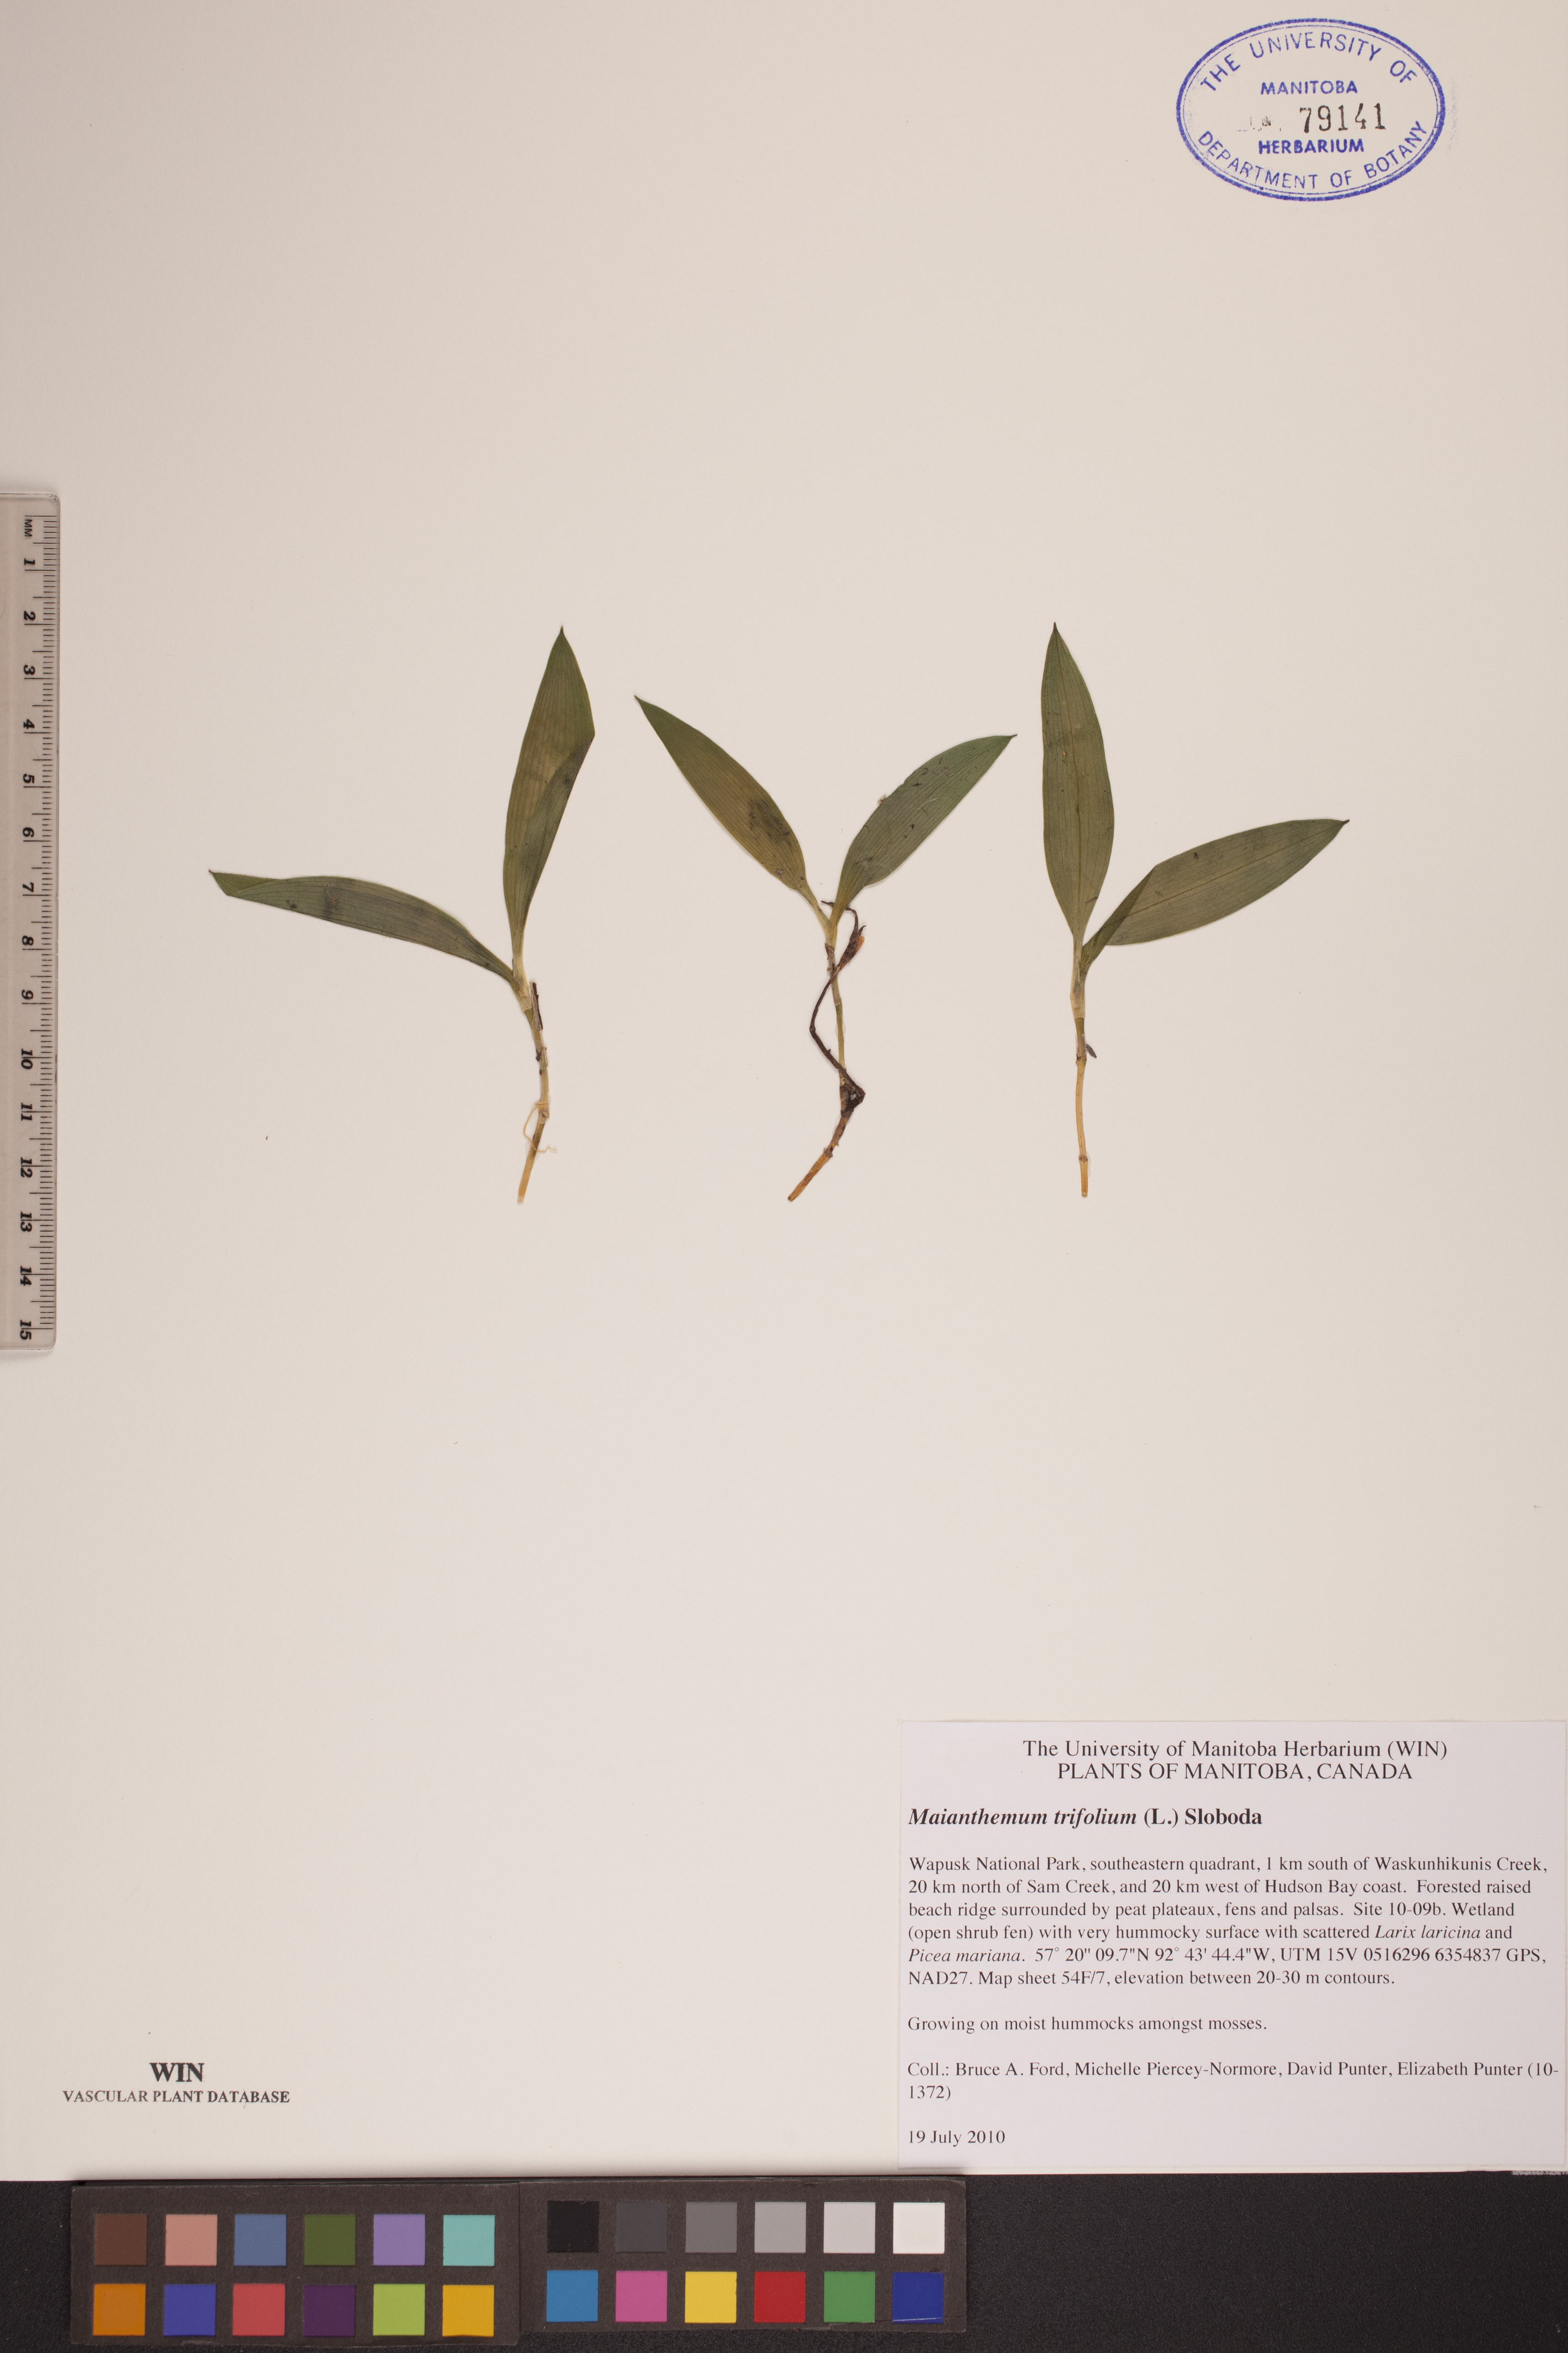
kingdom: Plantae
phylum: Tracheophyta
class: Liliopsida
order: Asparagales
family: Asparagaceae
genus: Maianthemum
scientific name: Maianthemum trifolium
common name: Swamp false solomon's seal
